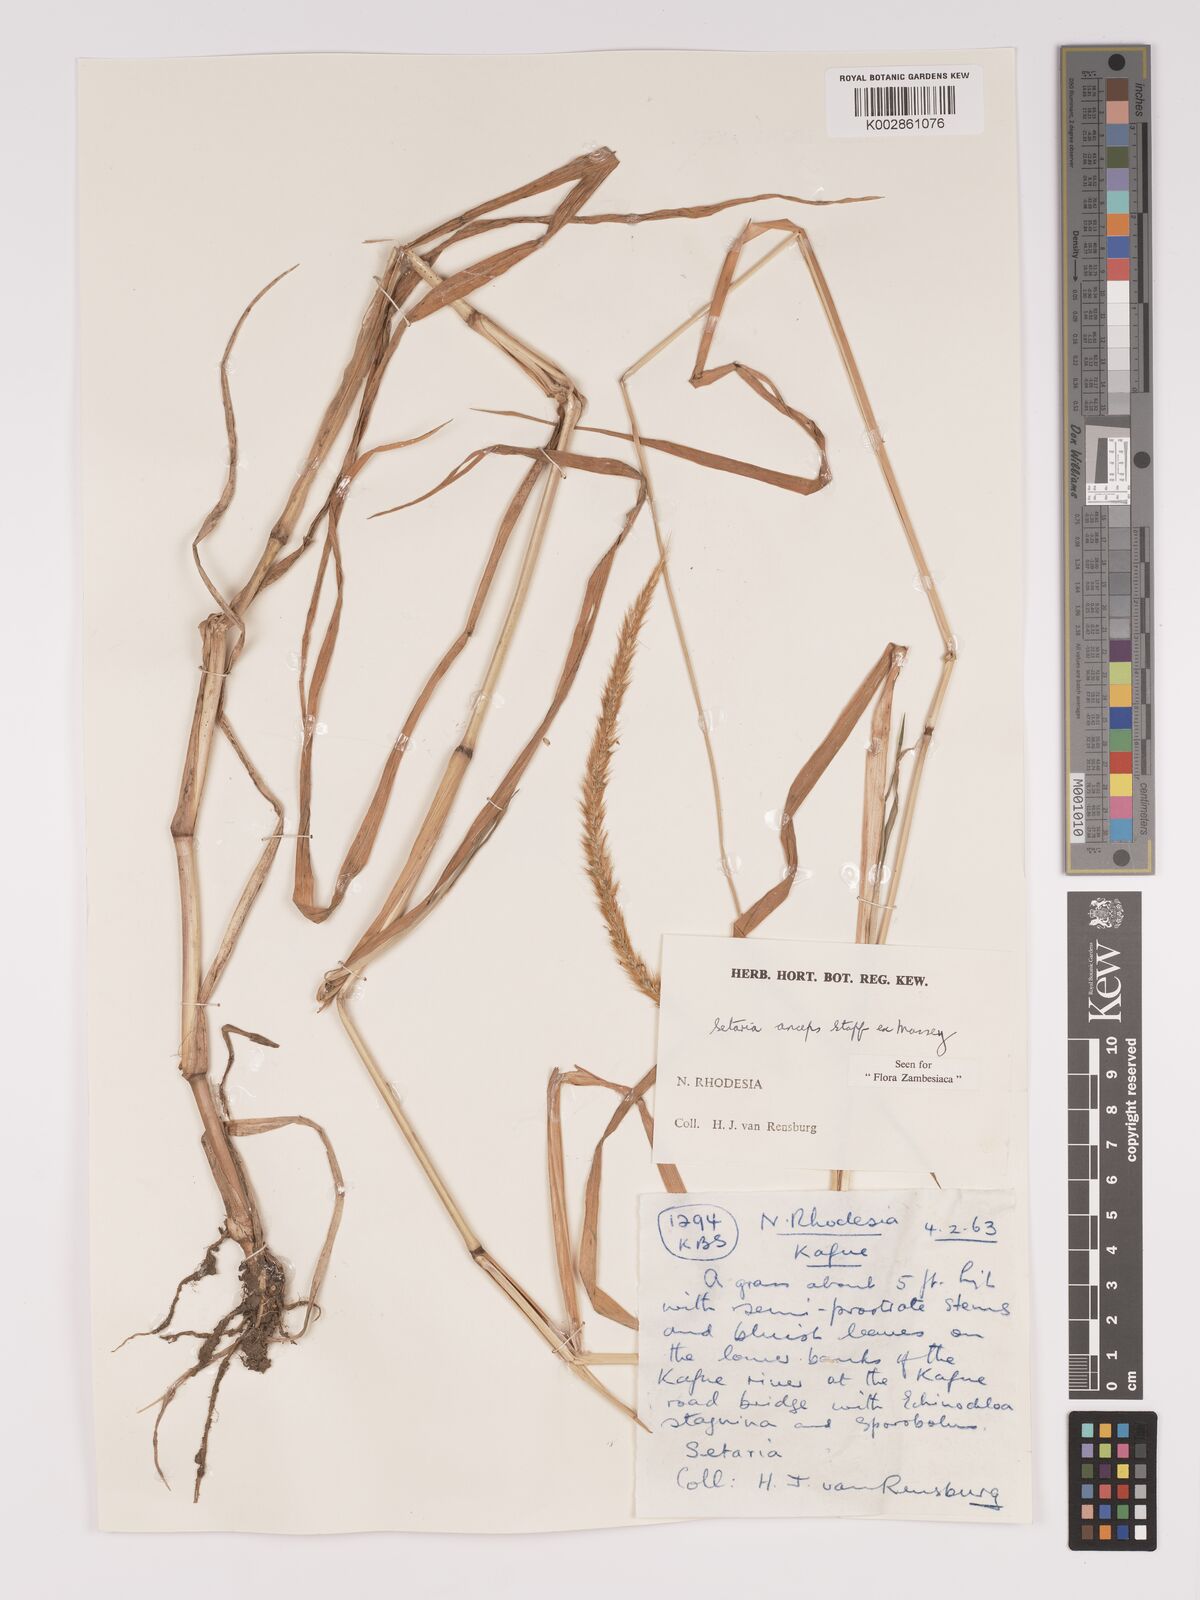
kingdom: Plantae
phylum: Tracheophyta
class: Liliopsida
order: Poales
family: Poaceae
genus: Setaria
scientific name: Setaria sphacelata
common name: African bristlegrass
